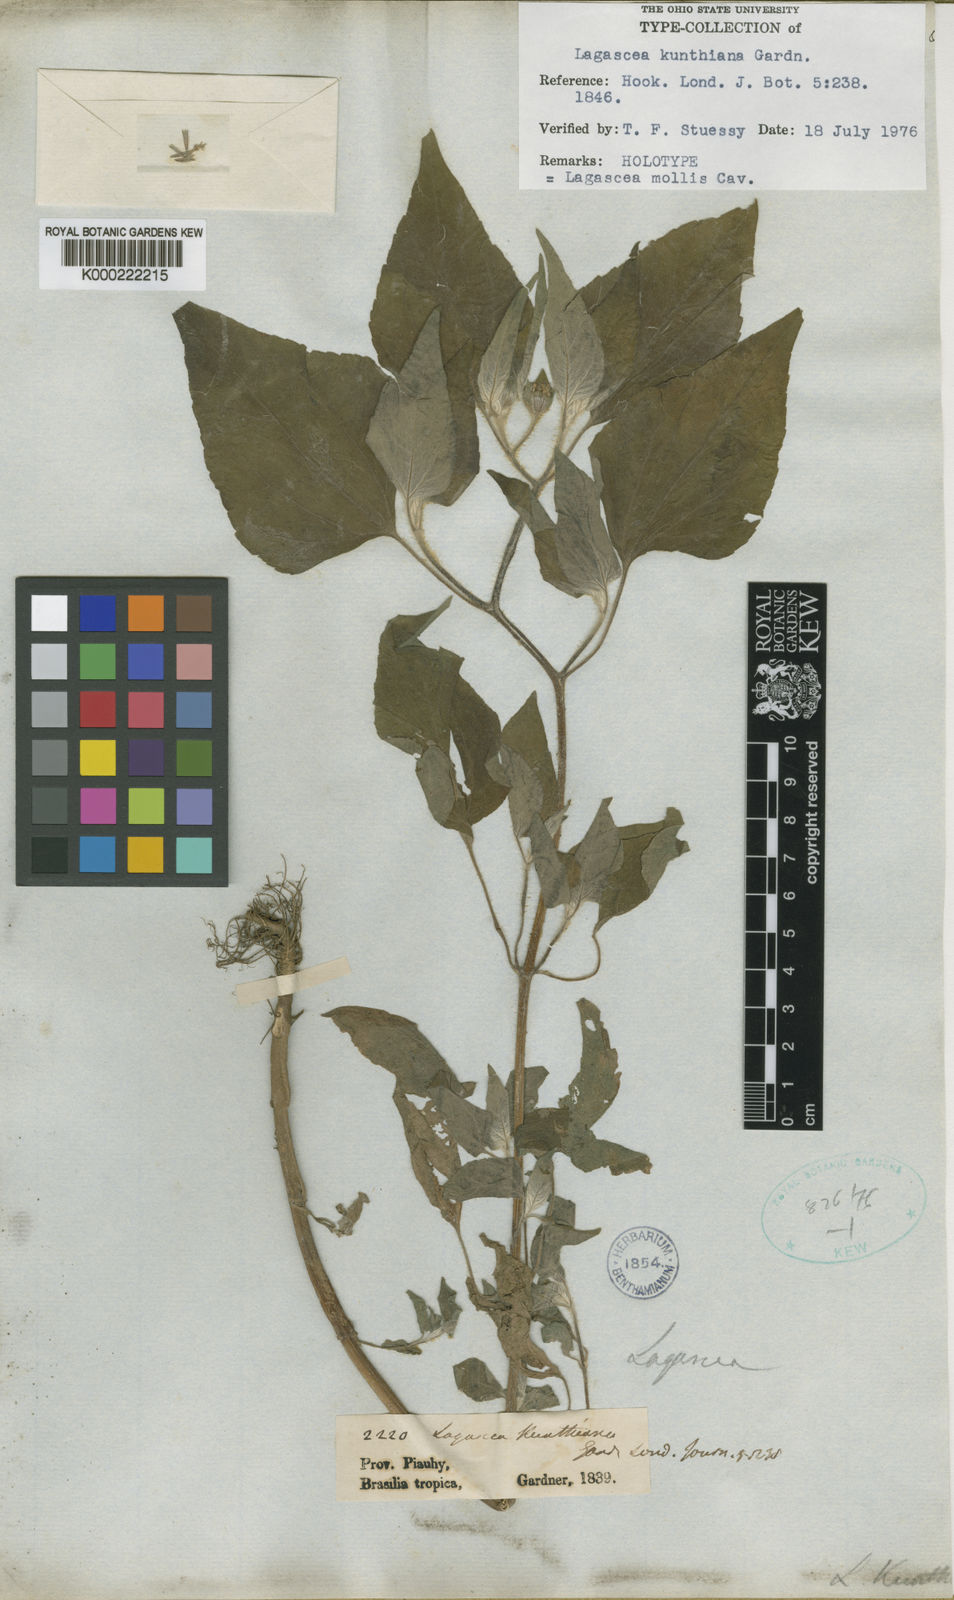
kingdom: Plantae
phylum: Tracheophyta
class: Magnoliopsida
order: Asterales
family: Asteraceae
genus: Lagascea
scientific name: Lagascea mollis
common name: Silkleaf
